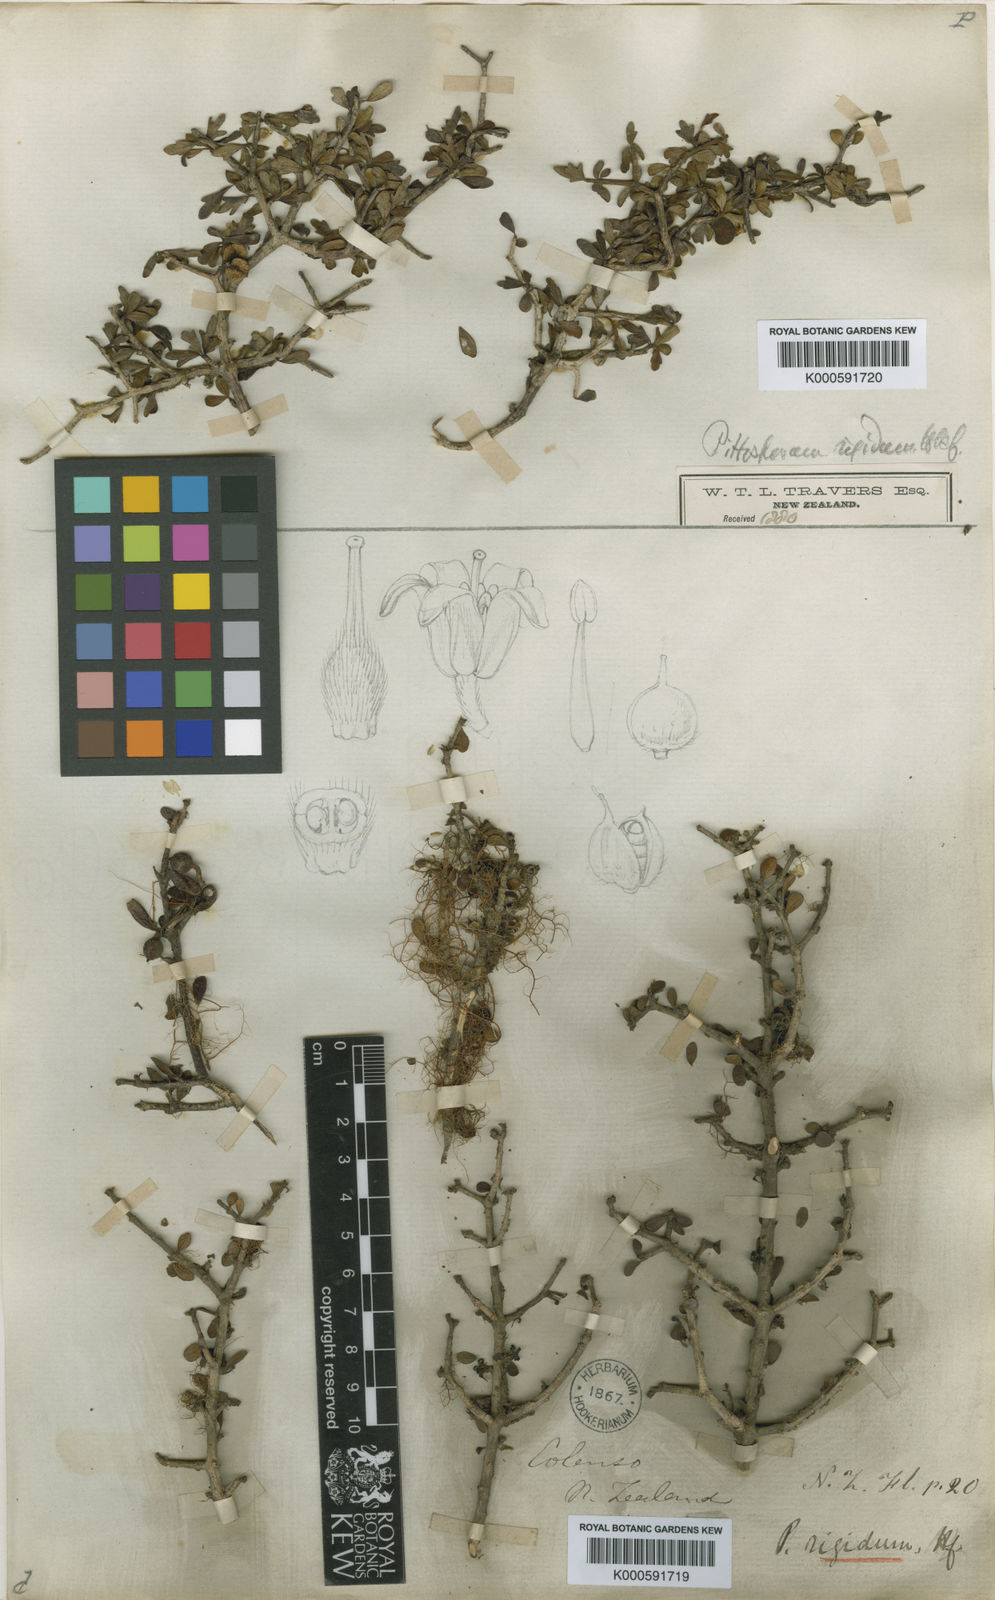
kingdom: Plantae
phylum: Tracheophyta
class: Magnoliopsida
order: Apiales
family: Pittosporaceae
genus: Pittosporum
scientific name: Pittosporum rigidum
